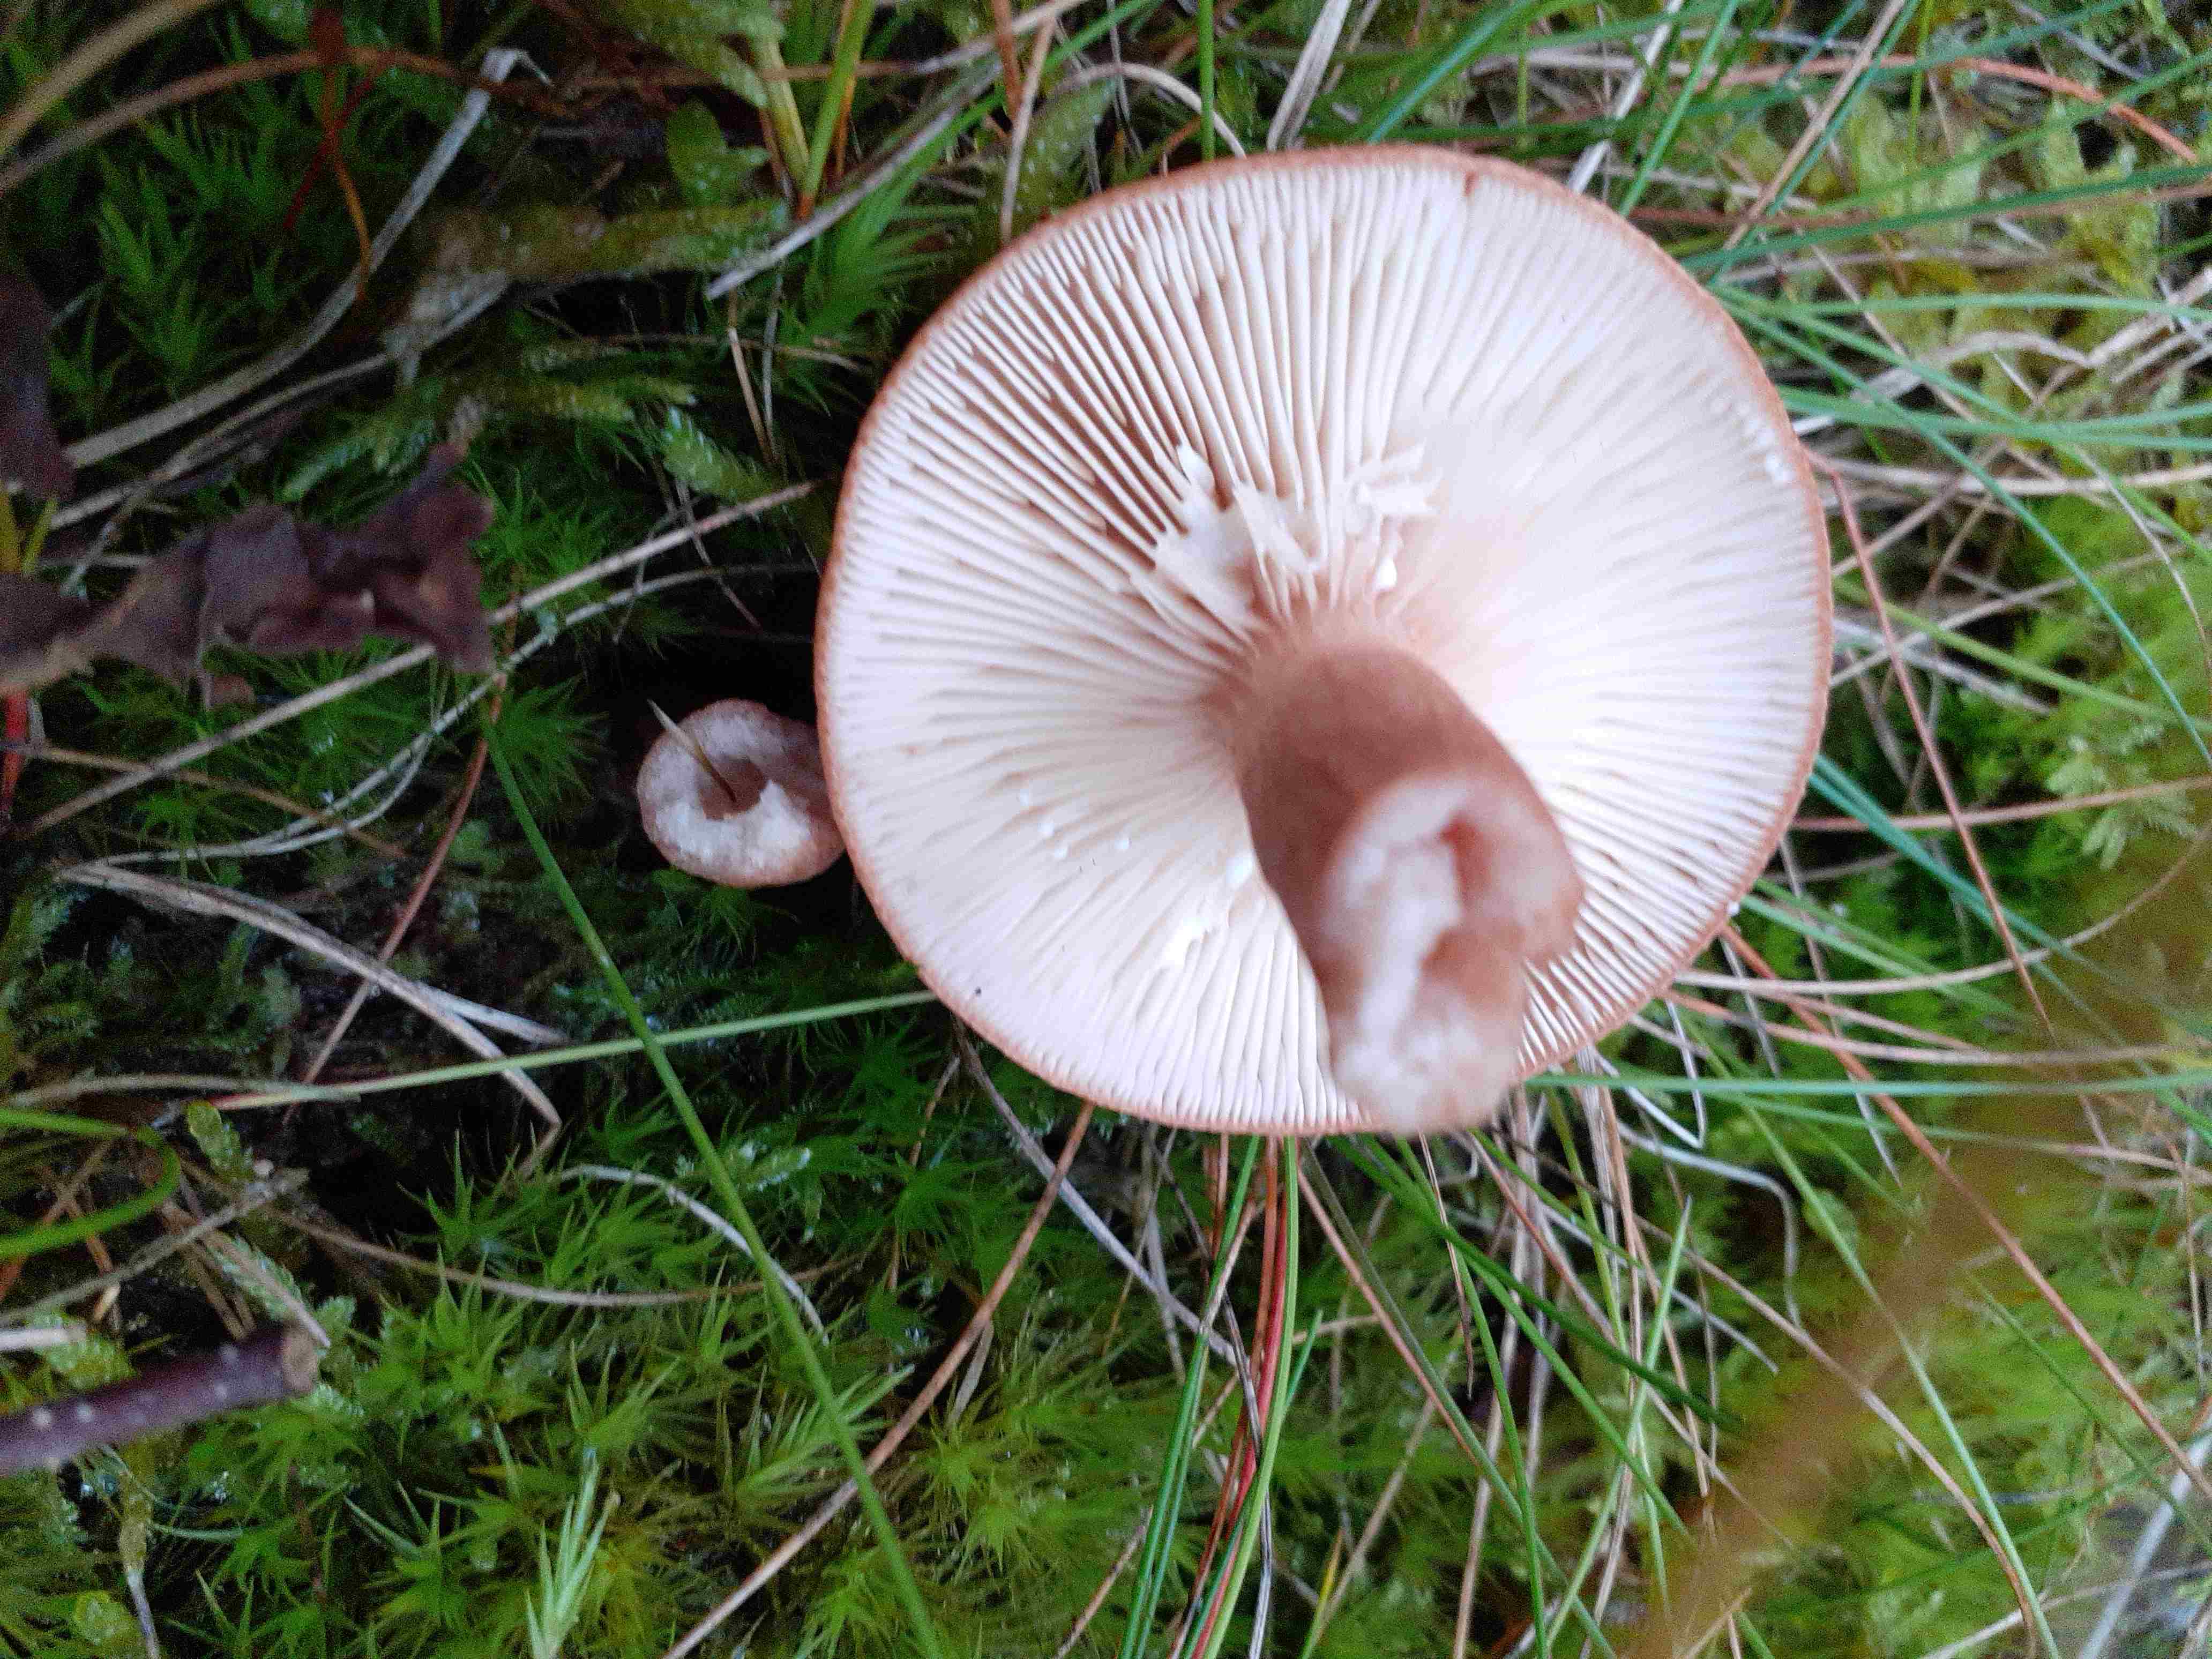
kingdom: Fungi
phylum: Basidiomycota
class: Agaricomycetes
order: Russulales
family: Russulaceae
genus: Lactarius
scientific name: Lactarius quietus
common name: ege-mælkehat
